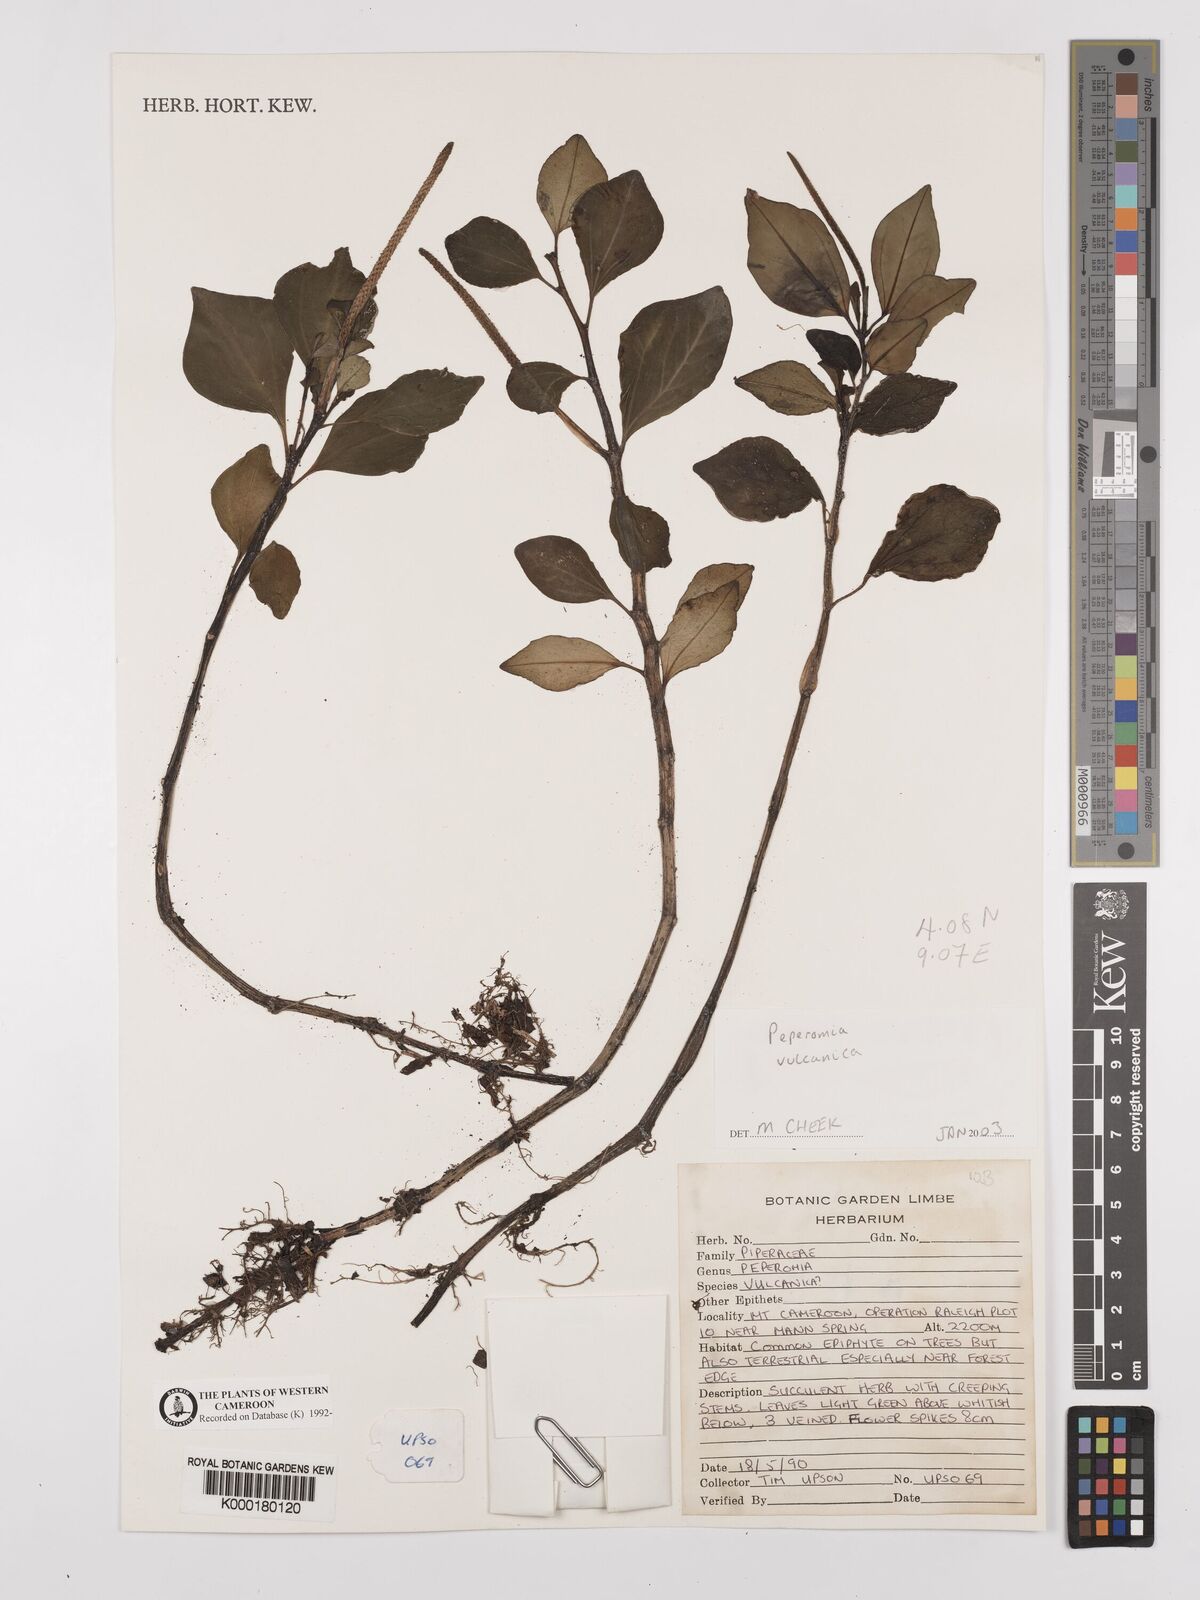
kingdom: Plantae
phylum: Tracheophyta
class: Magnoliopsida
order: Piperales
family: Piperaceae
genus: Peperomia
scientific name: Peperomia vulcanica
